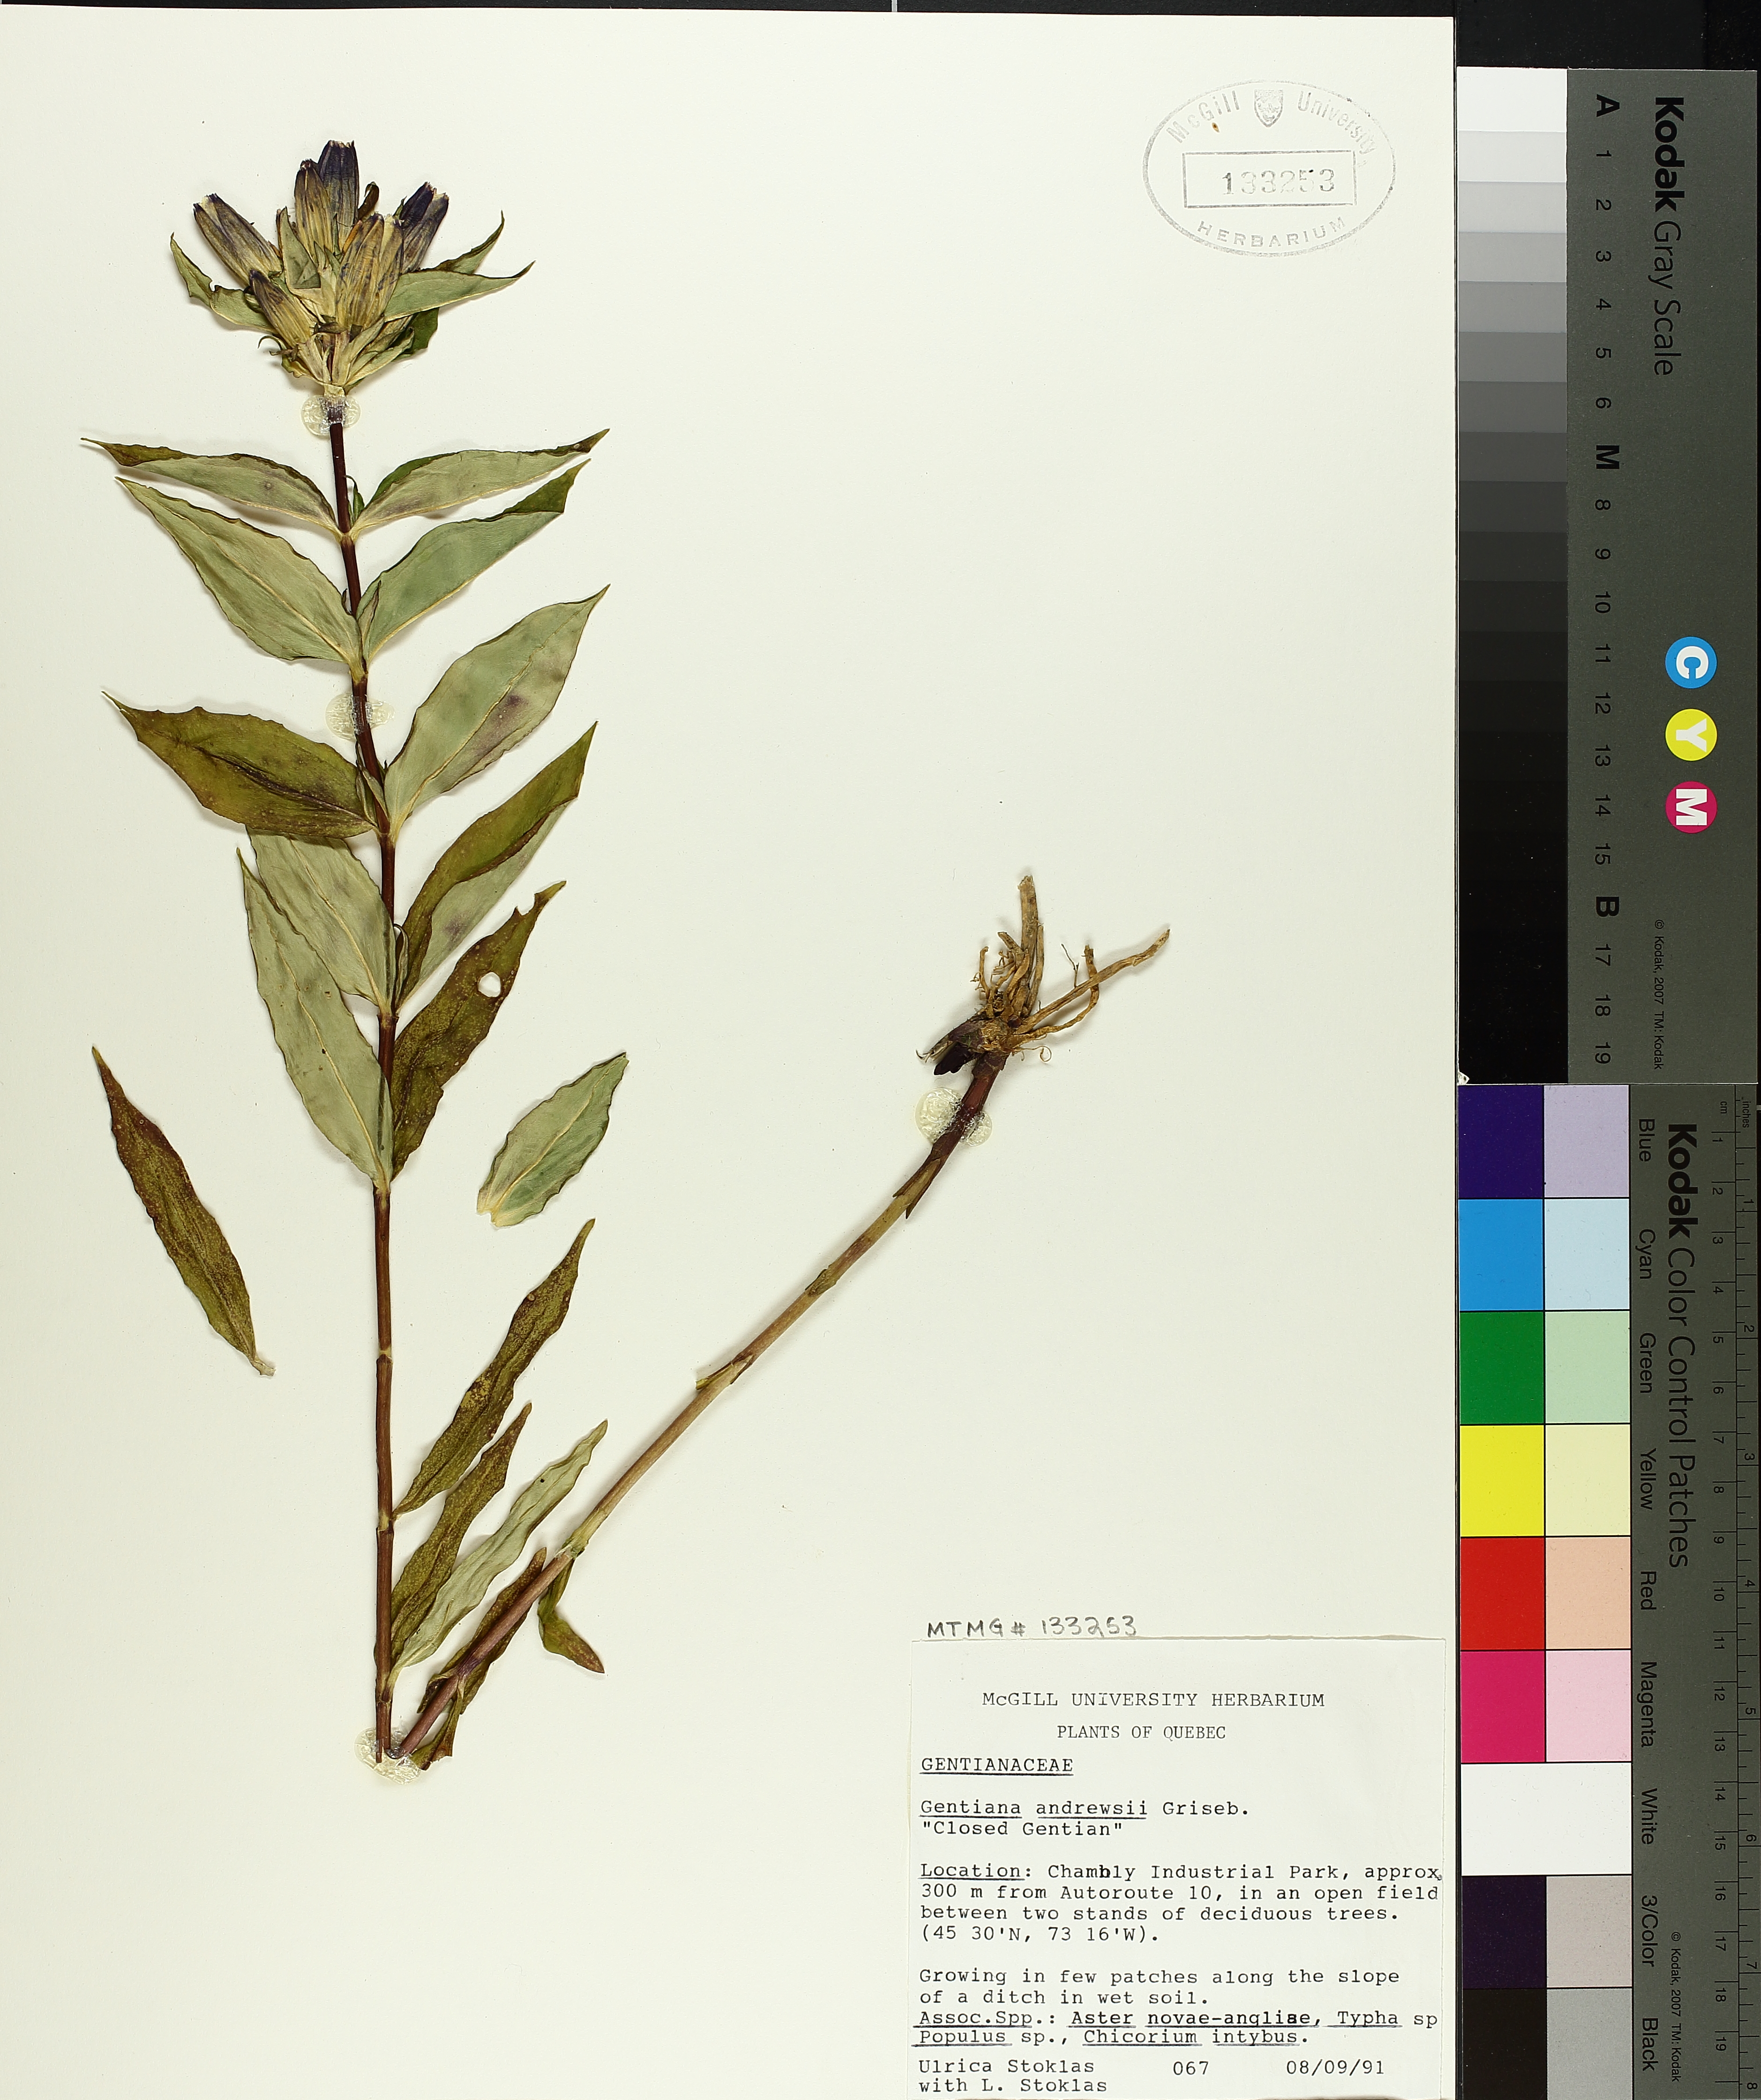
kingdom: Plantae
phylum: Tracheophyta
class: Magnoliopsida
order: Gentianales
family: Gentianaceae
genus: Gentiana
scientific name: Gentiana andrewsii
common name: Bottle gentian
